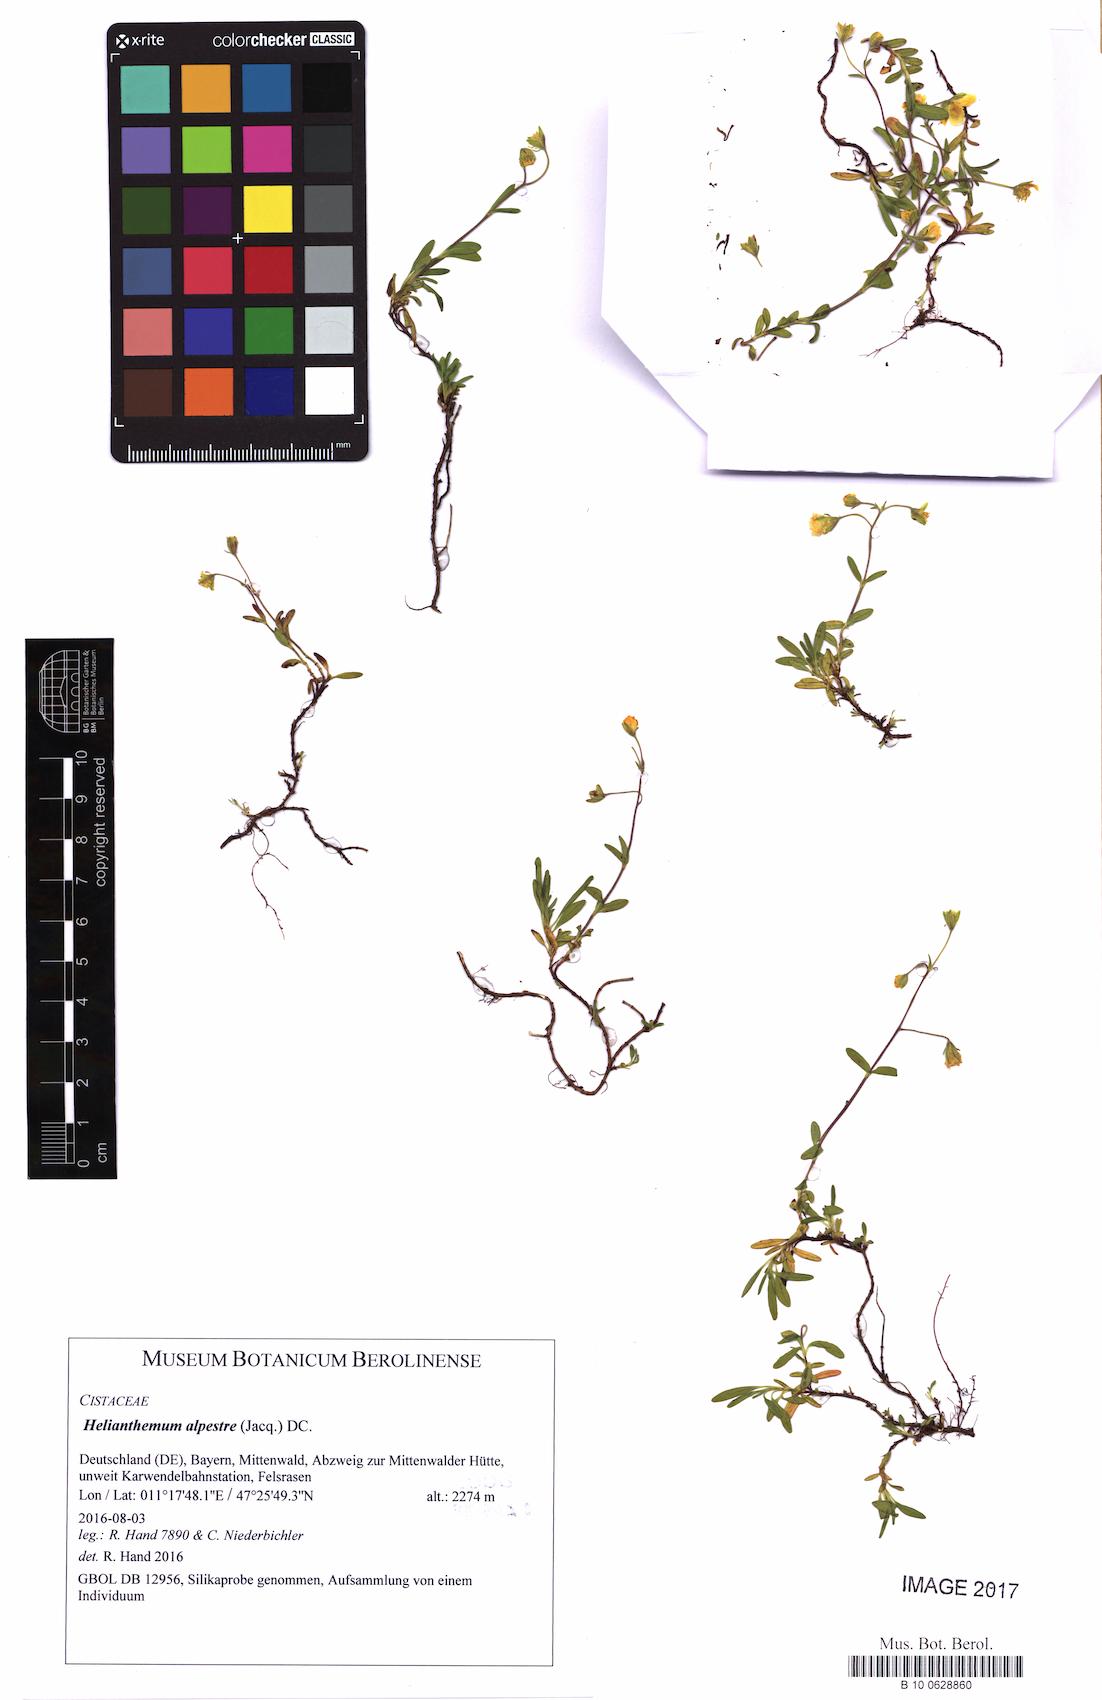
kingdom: Plantae
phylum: Tracheophyta
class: Magnoliopsida
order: Malvales
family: Cistaceae
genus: Helianthemum
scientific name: Helianthemum alpestre
